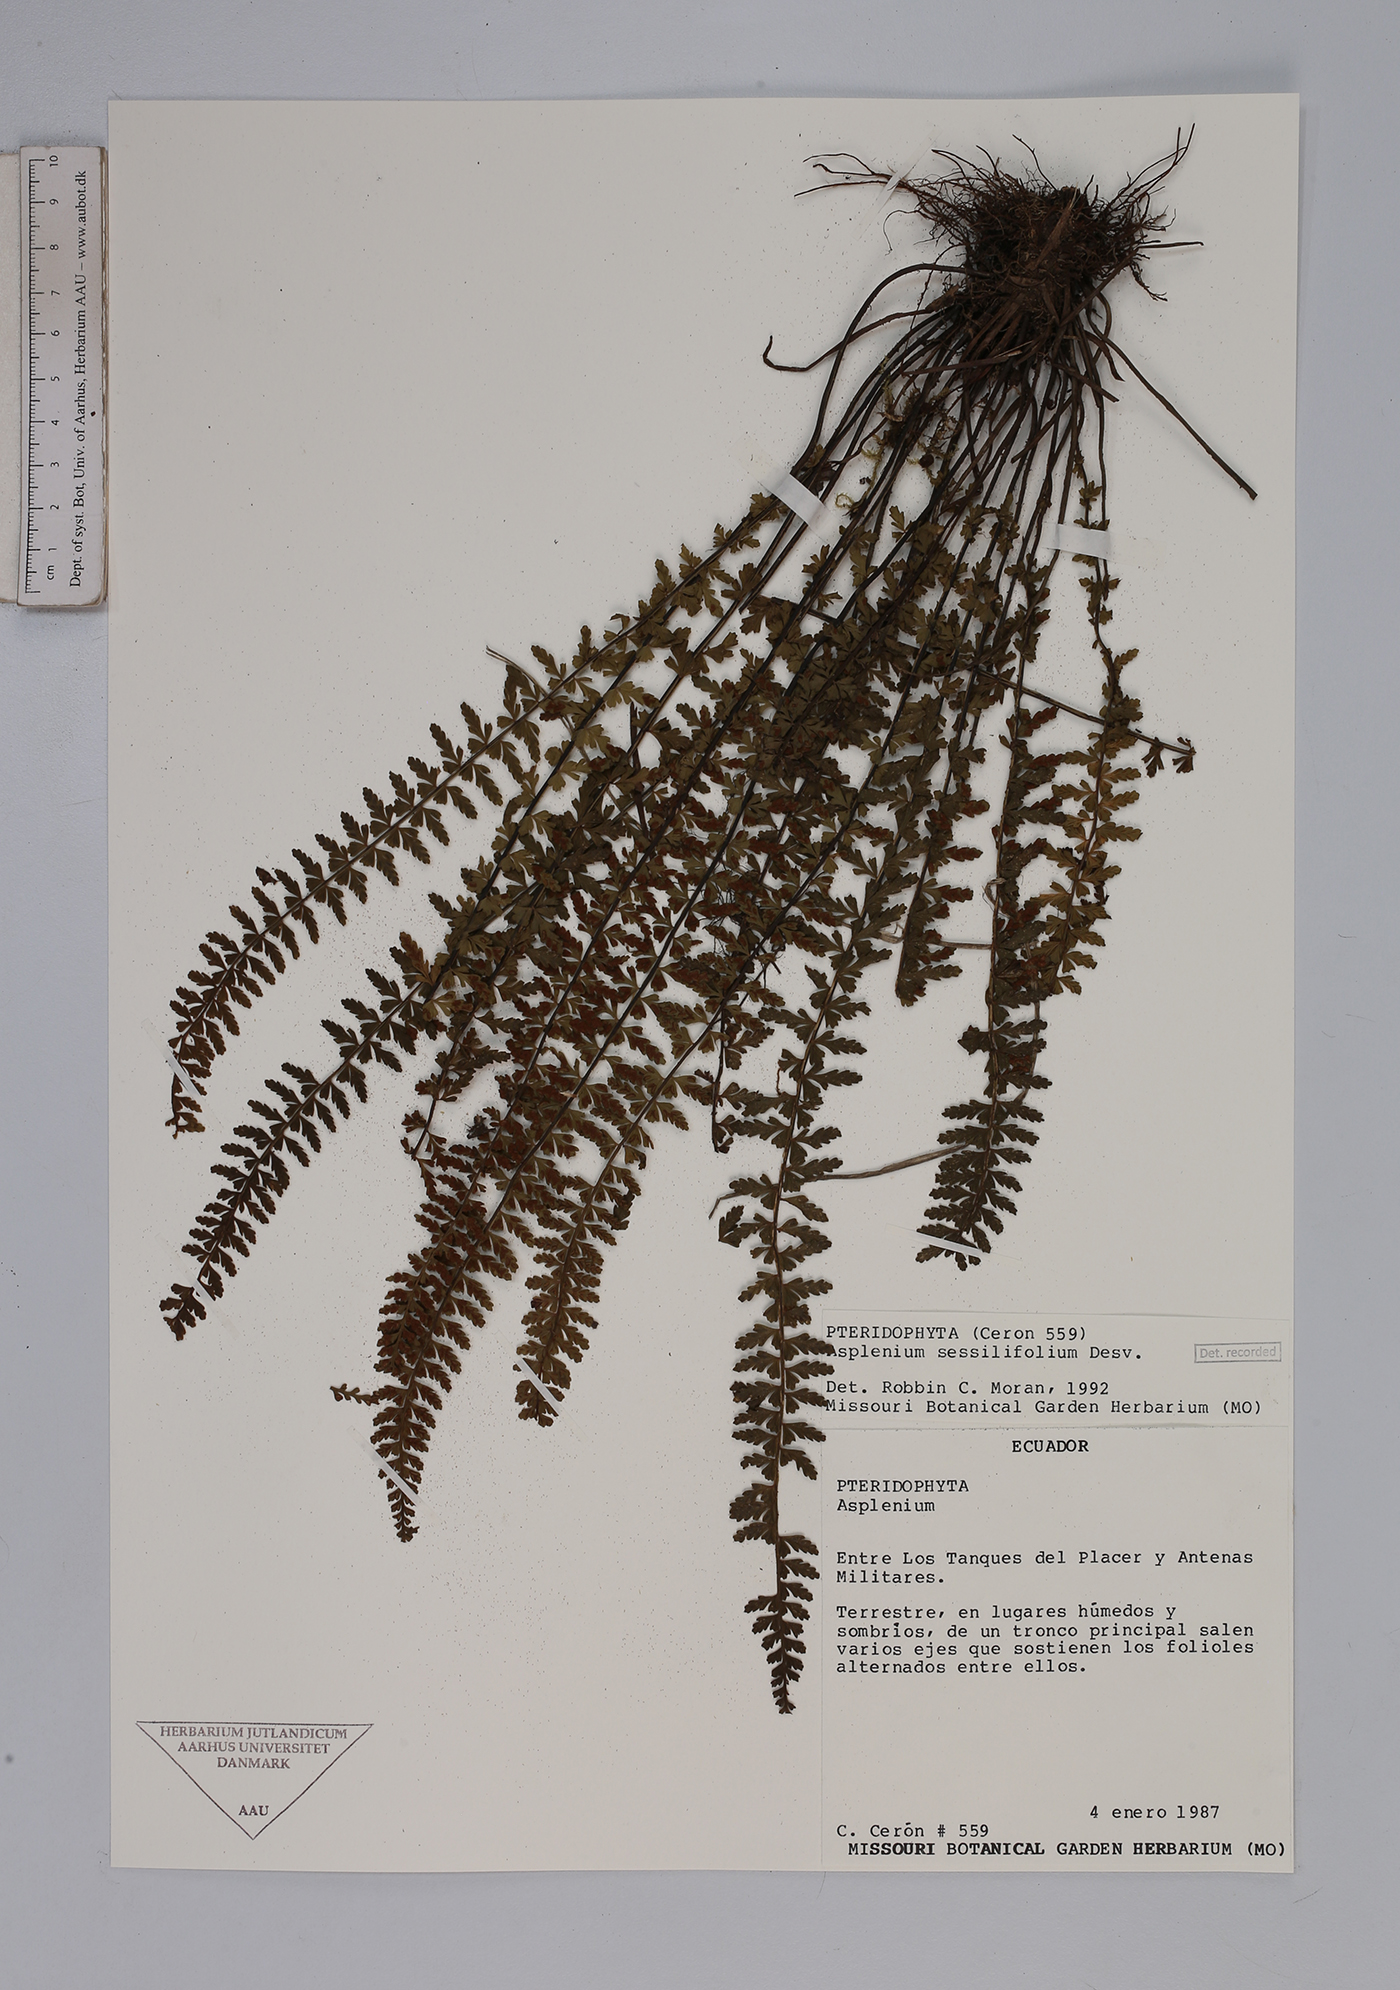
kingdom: Plantae
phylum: Tracheophyta
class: Polypodiopsida
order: Polypodiales
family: Aspleniaceae
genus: Asplenium
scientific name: Asplenium sessilifolium
